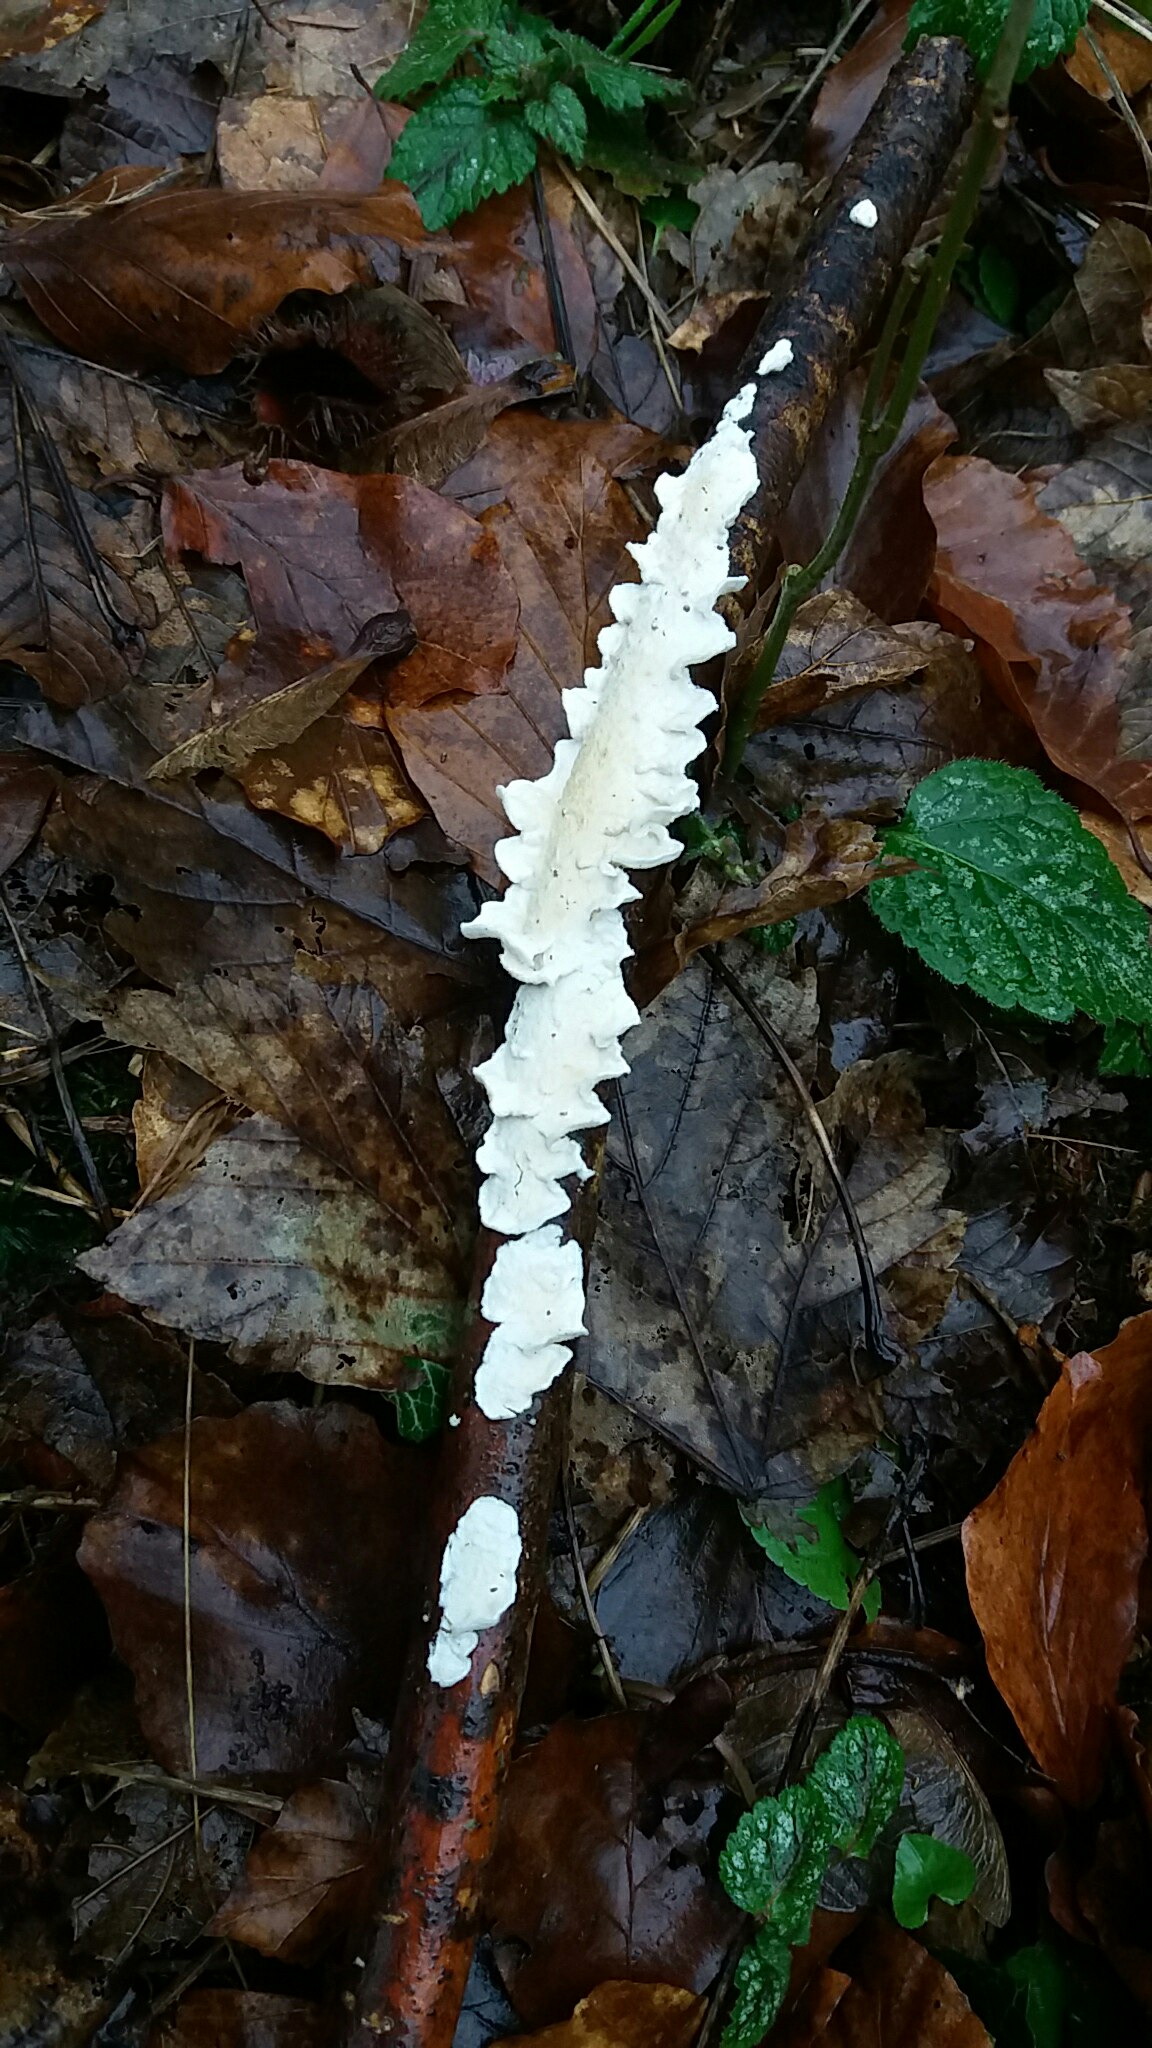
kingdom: Fungi
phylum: Basidiomycota
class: Agaricomycetes
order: Polyporales
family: Irpicaceae
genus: Byssomerulius
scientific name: Byssomerulius corium
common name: læder-åresvamp
